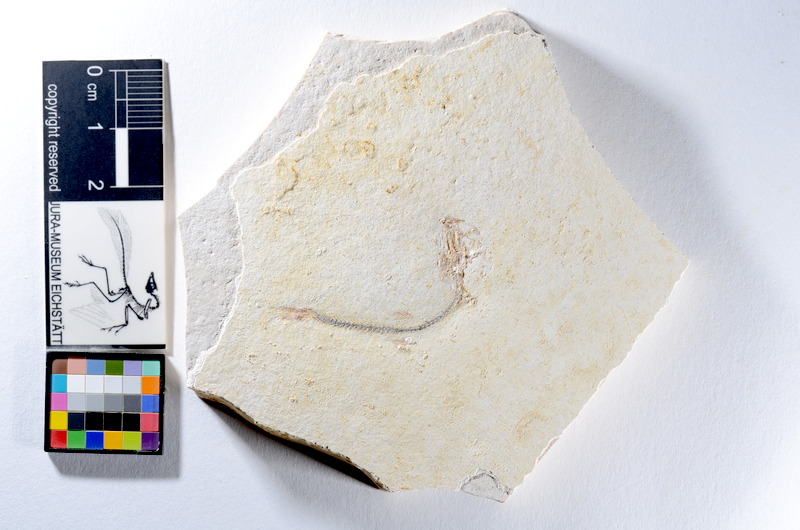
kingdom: Animalia
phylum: Chordata
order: Salmoniformes
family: Orthogonikleithridae
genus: Orthogonikleithrus
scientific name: Orthogonikleithrus hoelli
